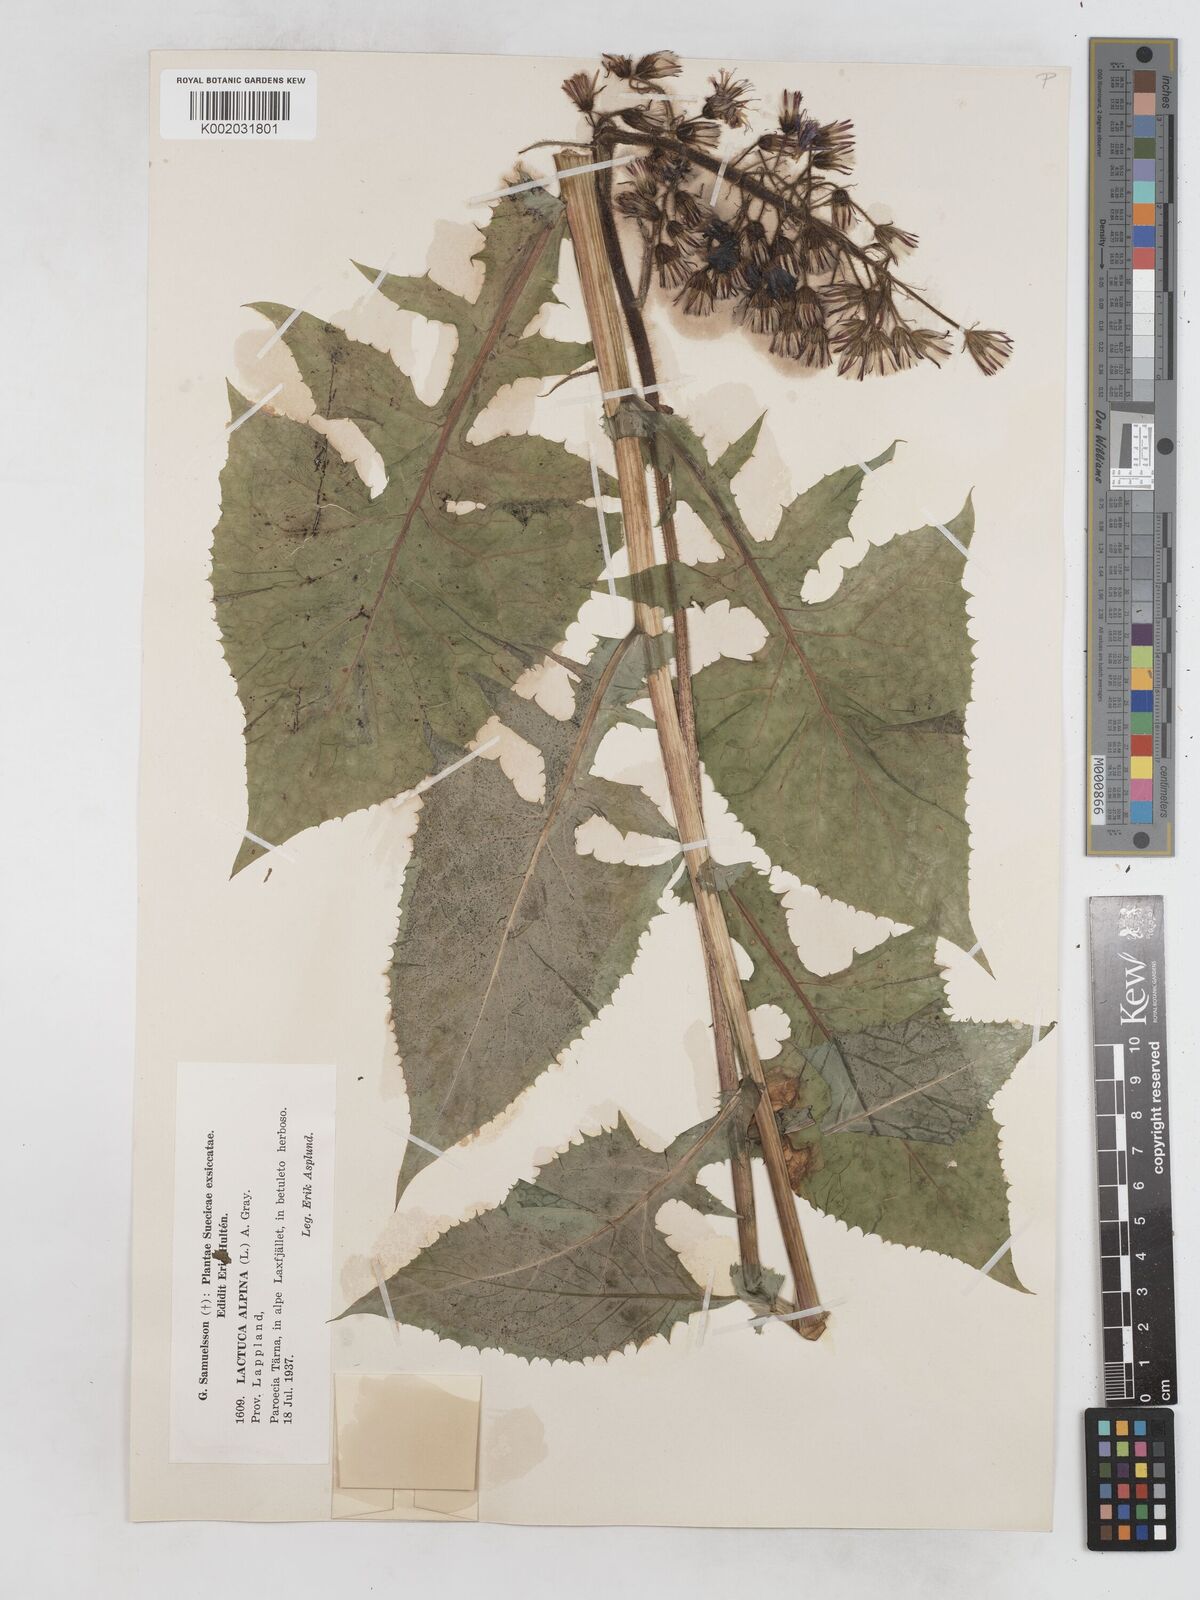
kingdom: Plantae
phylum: Tracheophyta
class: Magnoliopsida
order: Asterales
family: Asteraceae
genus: Cicerbita
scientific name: Cicerbita alpina
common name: Alpine blue-sow-thistle
